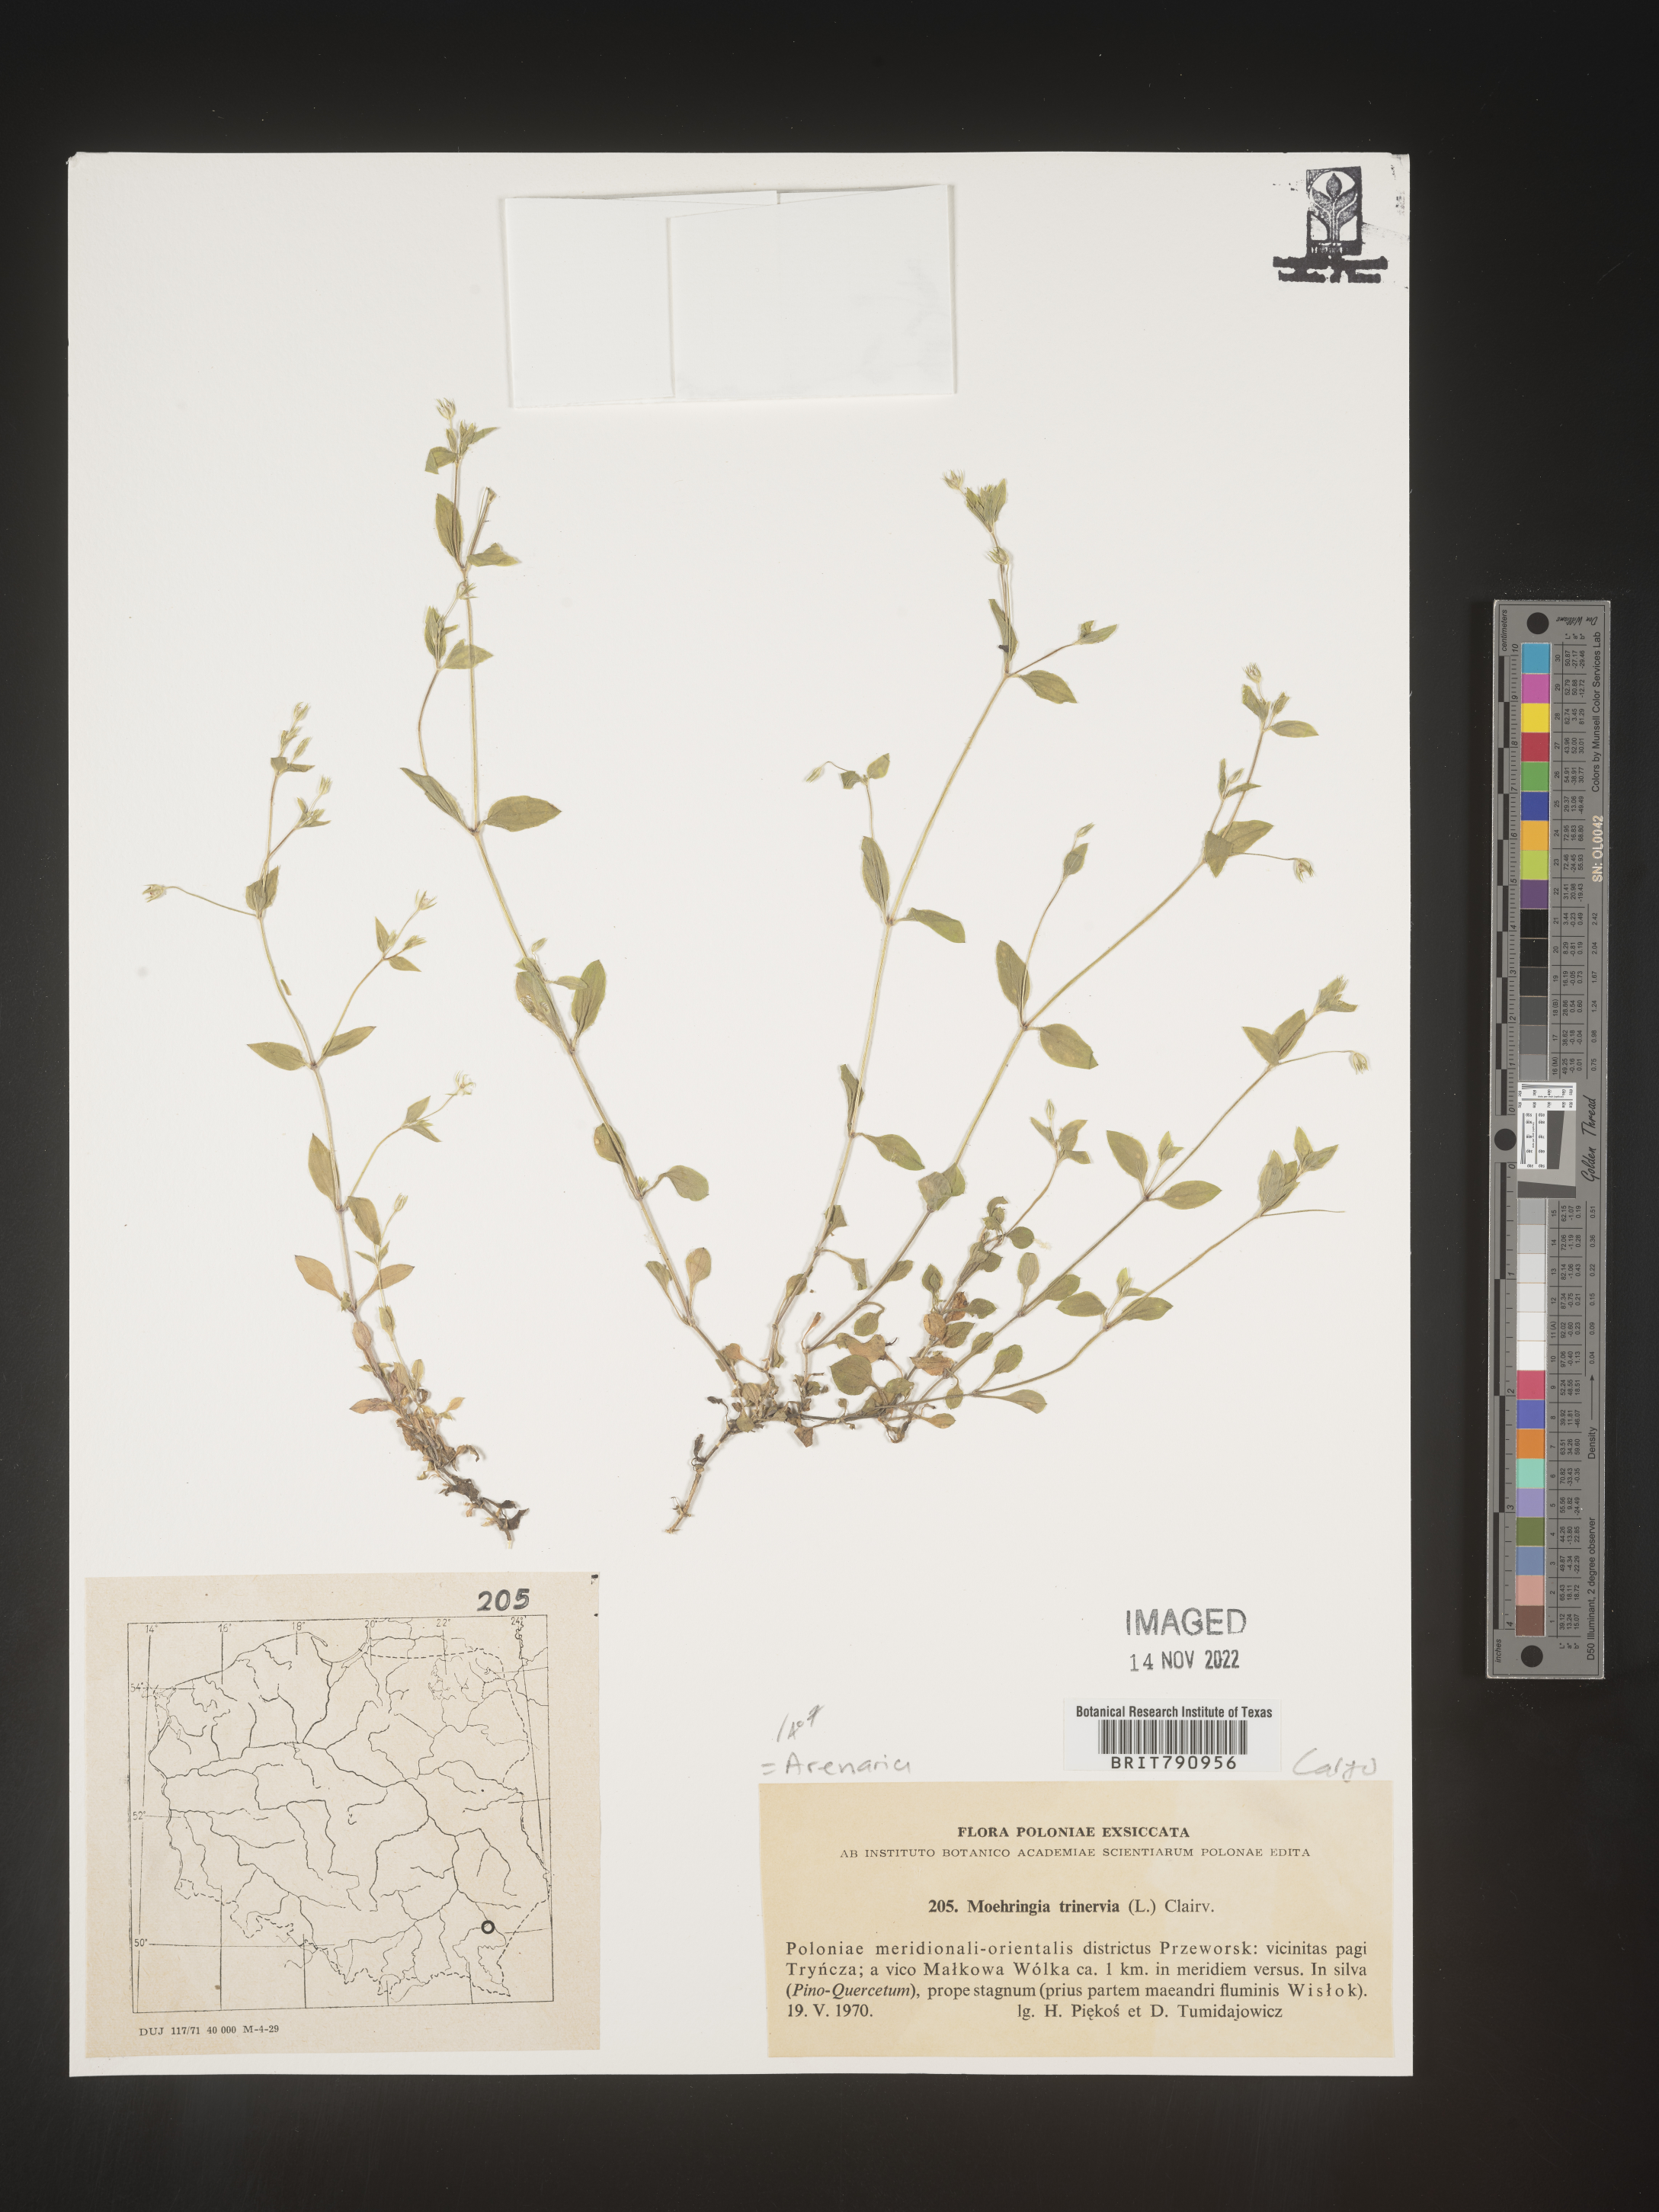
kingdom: Plantae
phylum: Tracheophyta
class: Magnoliopsida
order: Caryophyllales
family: Caryophyllaceae
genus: Moehringia
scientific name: Moehringia
